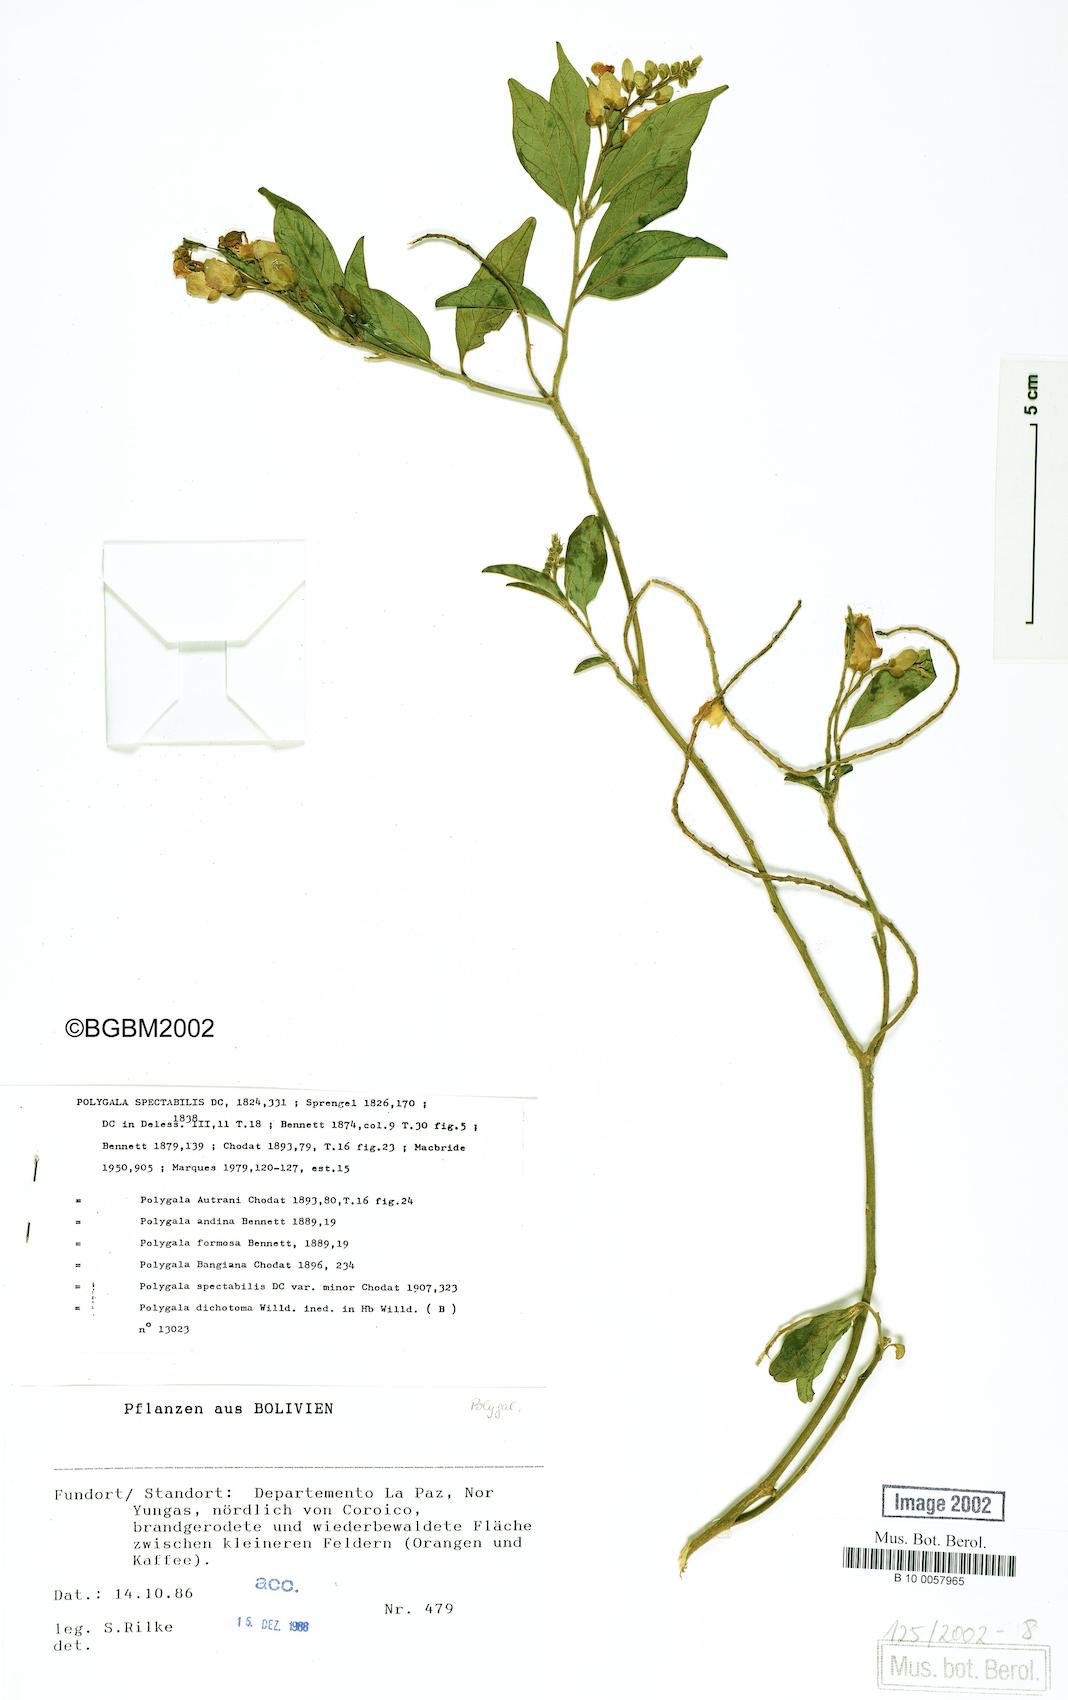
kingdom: Plantae
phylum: Tracheophyta
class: Magnoliopsida
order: Fabales
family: Polygalaceae
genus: Caamembeca
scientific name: Caamembeca spectabilis
